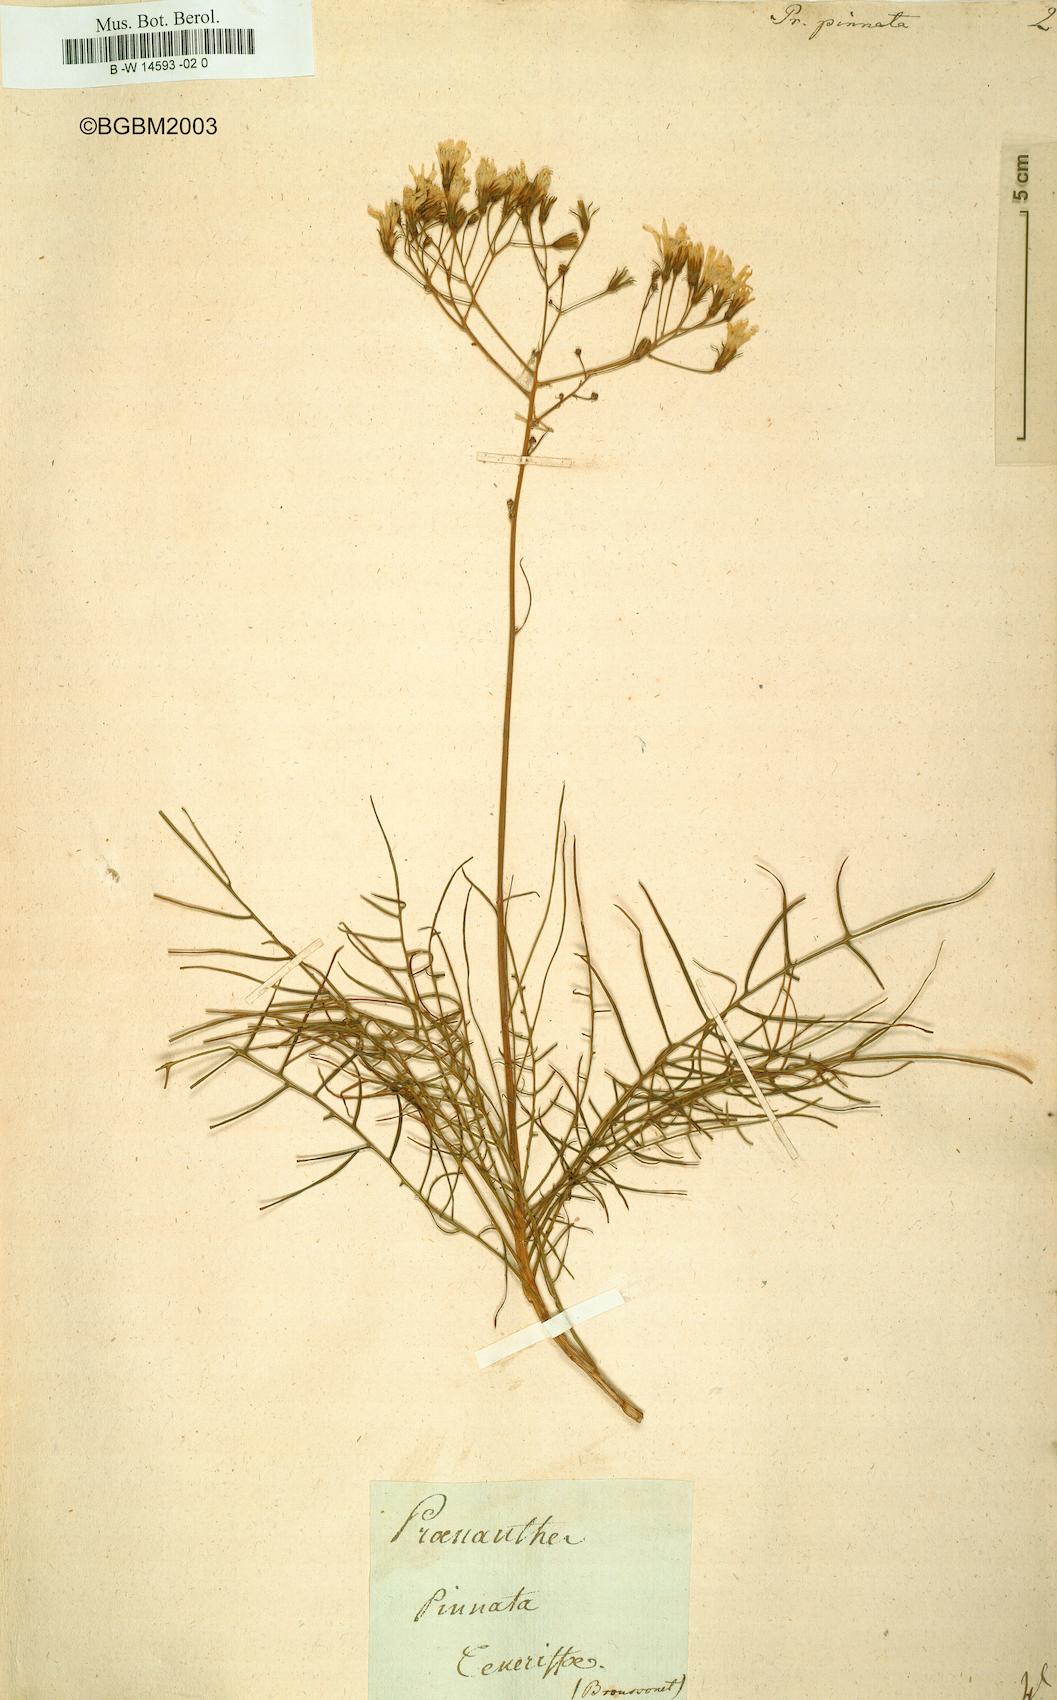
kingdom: Plantae
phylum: Tracheophyta
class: Magnoliopsida
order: Asterales
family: Asteraceae
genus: Sonchus
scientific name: Sonchus leptocephalus
